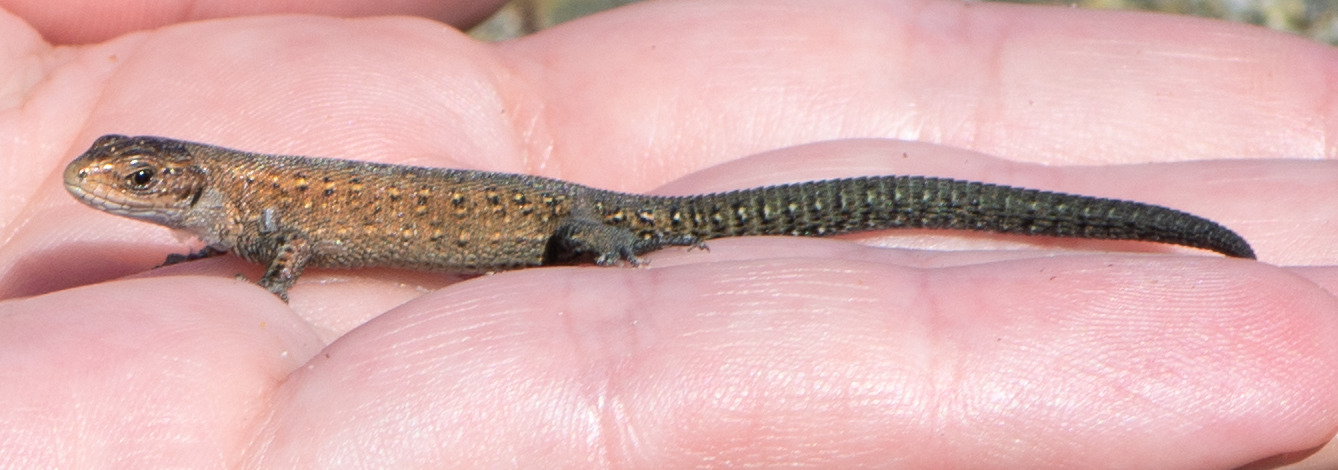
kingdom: Animalia
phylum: Chordata
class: Squamata
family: Lacertidae
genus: Zootoca
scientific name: Zootoca vivipara
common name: Skovfirben
